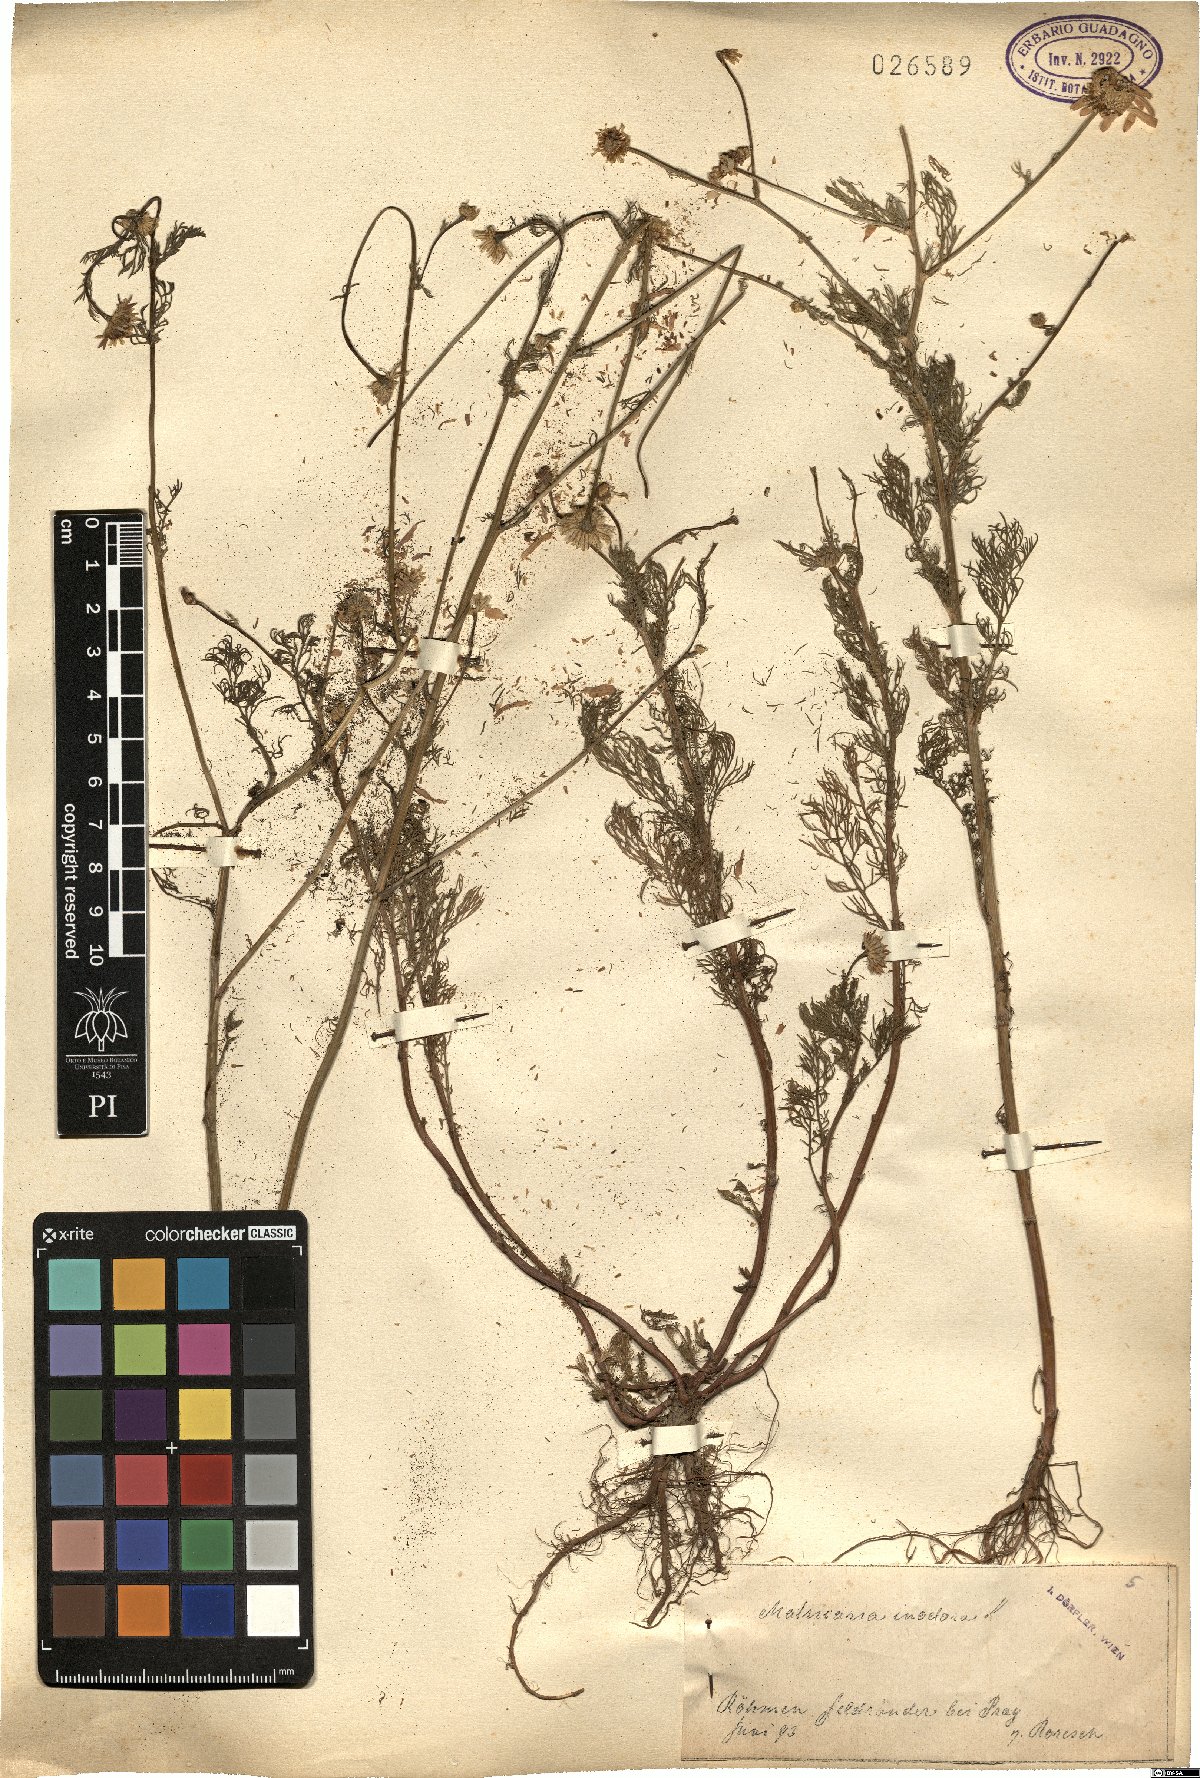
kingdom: Plantae
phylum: Tracheophyta
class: Magnoliopsida
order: Asterales
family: Asteraceae
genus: Tripleurospermum
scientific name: Tripleurospermum inodorum
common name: Scentless mayweed
